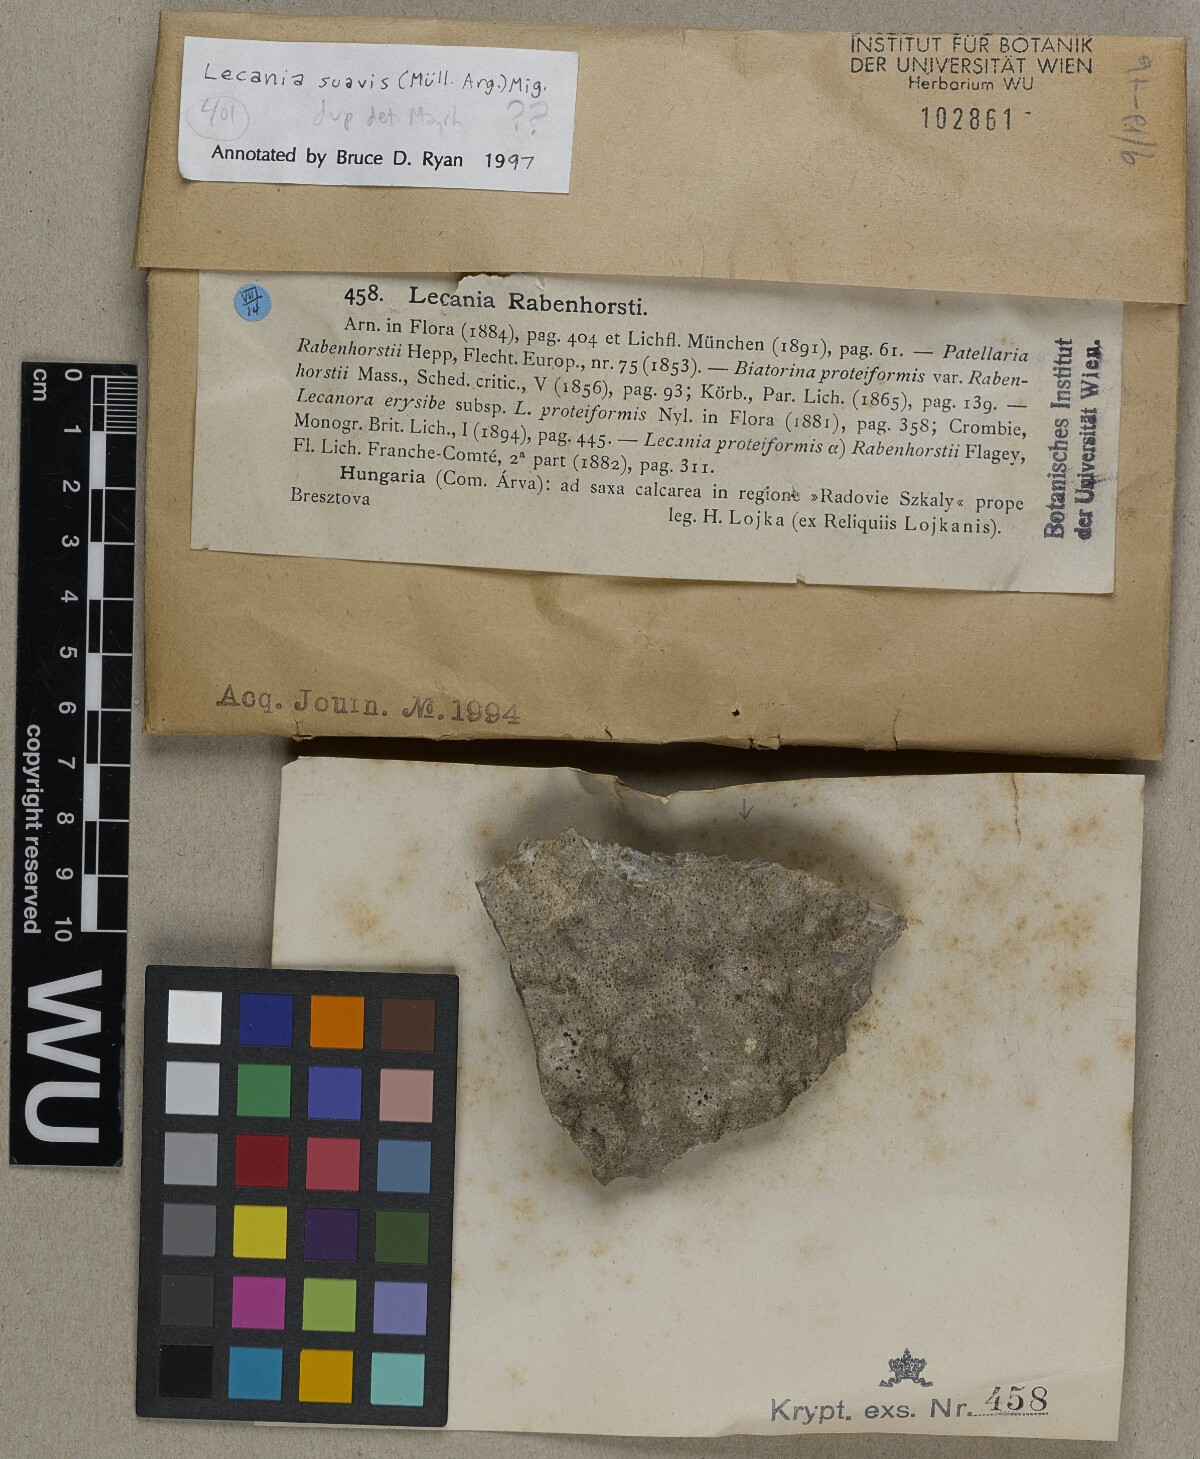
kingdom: Fungi
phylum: Ascomycota
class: Lecanoromycetes
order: Lecanorales
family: Ramalinaceae
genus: Lecania
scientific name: Lecania suavis
